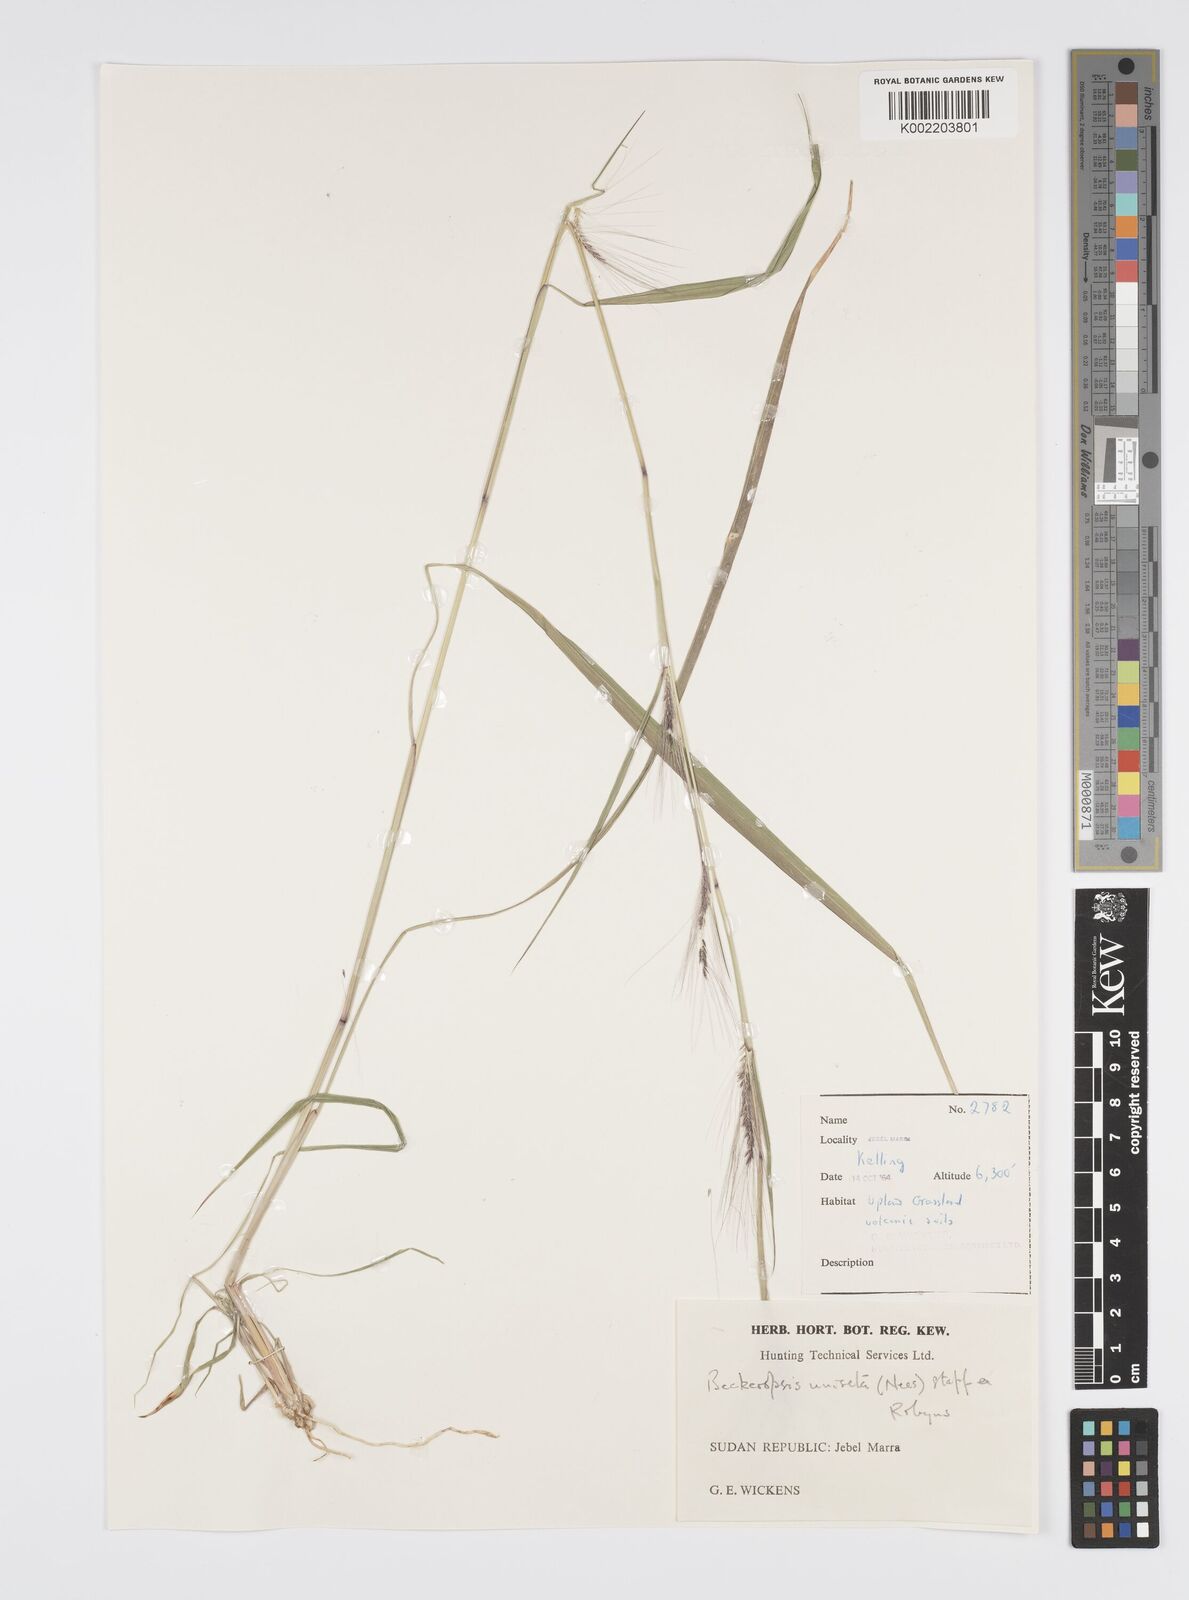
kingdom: Plantae
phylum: Tracheophyta
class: Liliopsida
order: Poales
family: Poaceae
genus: Cenchrus
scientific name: Cenchrus unisetus
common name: Natal grass
